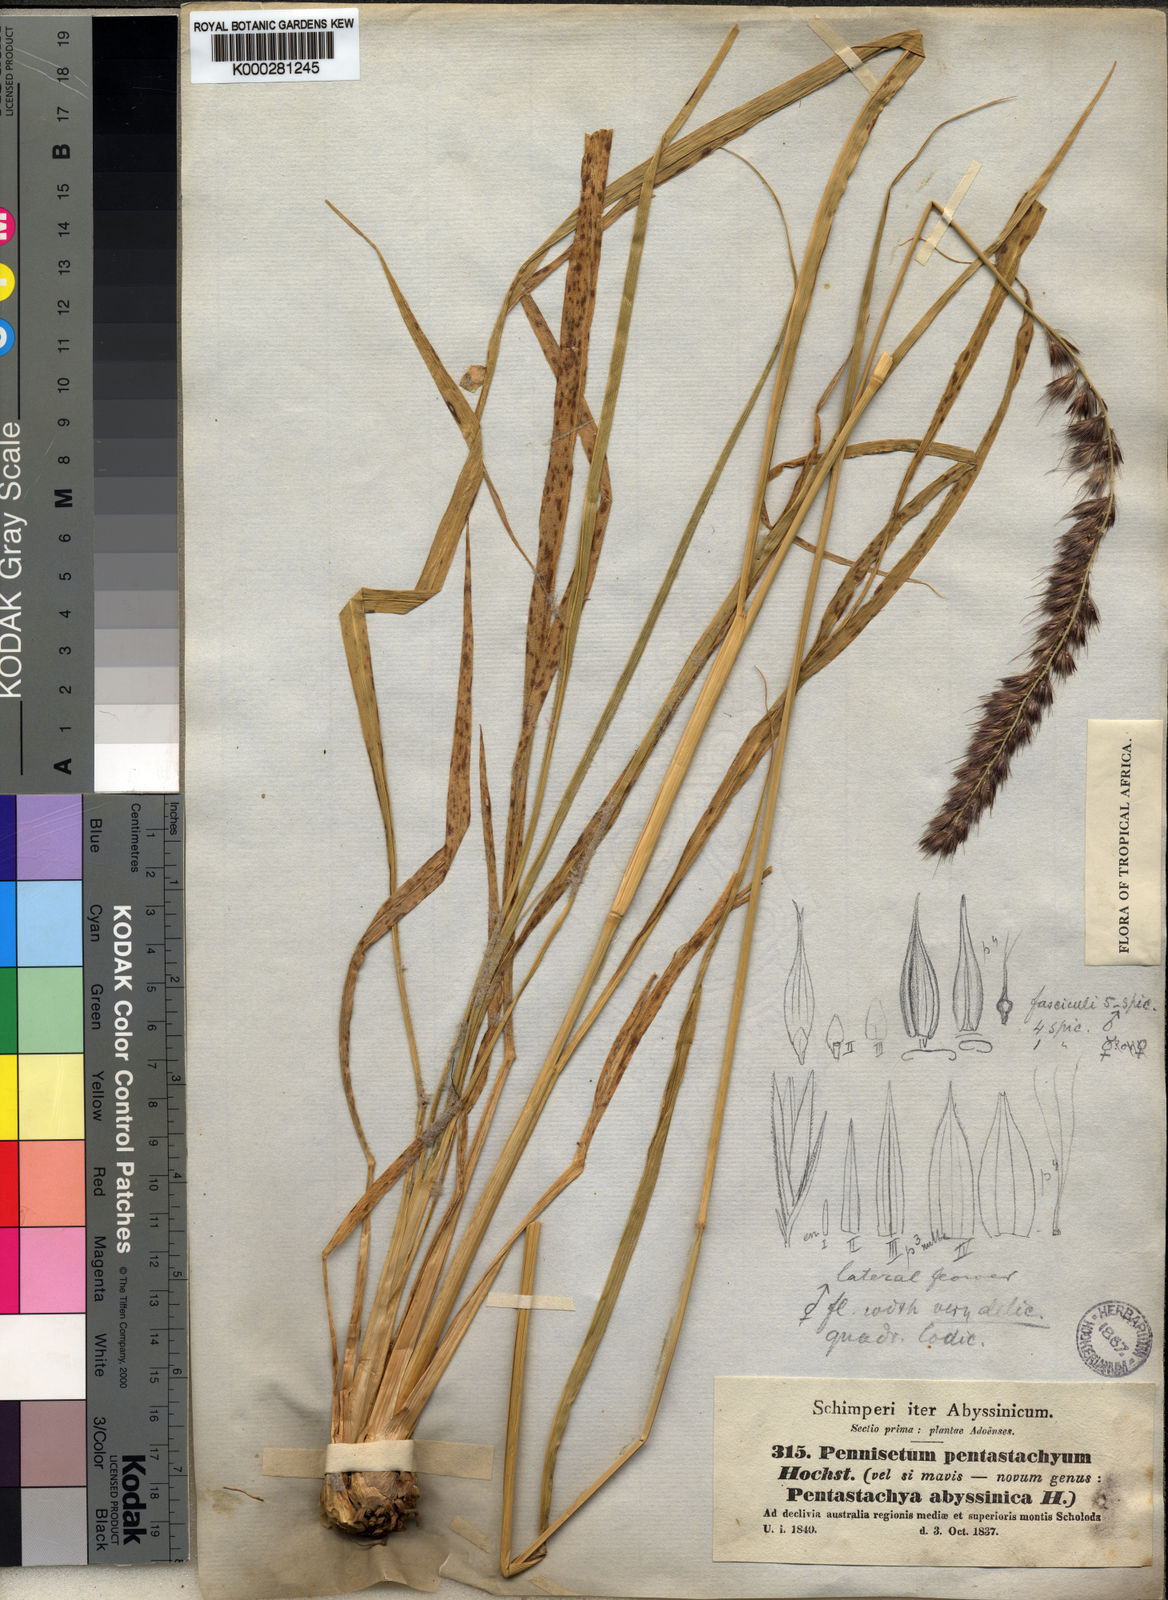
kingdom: Plantae
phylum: Tracheophyta
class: Liliopsida
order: Poales
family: Poaceae
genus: Cenchrus
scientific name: Cenchrus squamulatus
